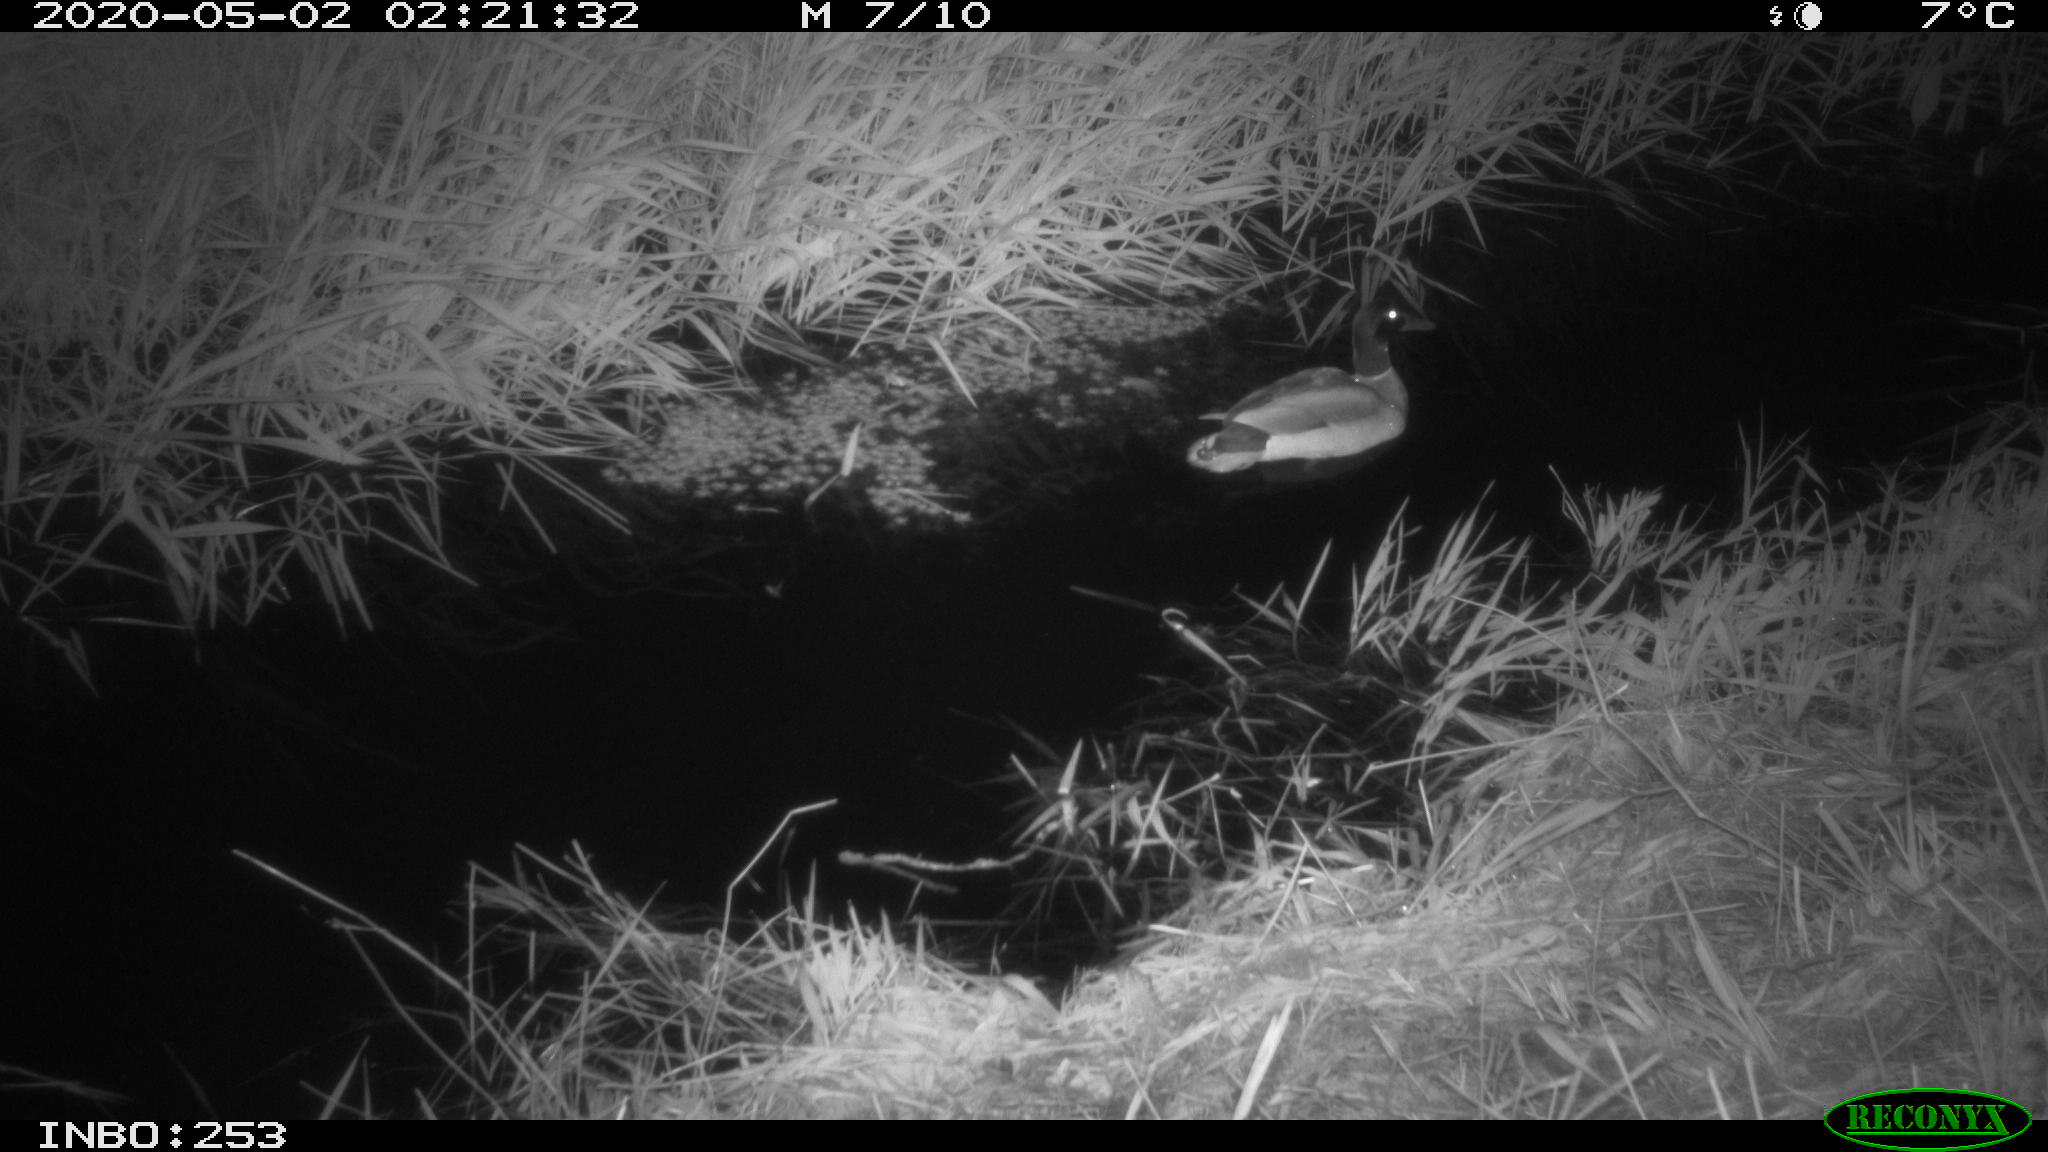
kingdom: Animalia
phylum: Chordata
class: Aves
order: Anseriformes
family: Anatidae
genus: Anas
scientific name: Anas platyrhynchos
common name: Mallard
